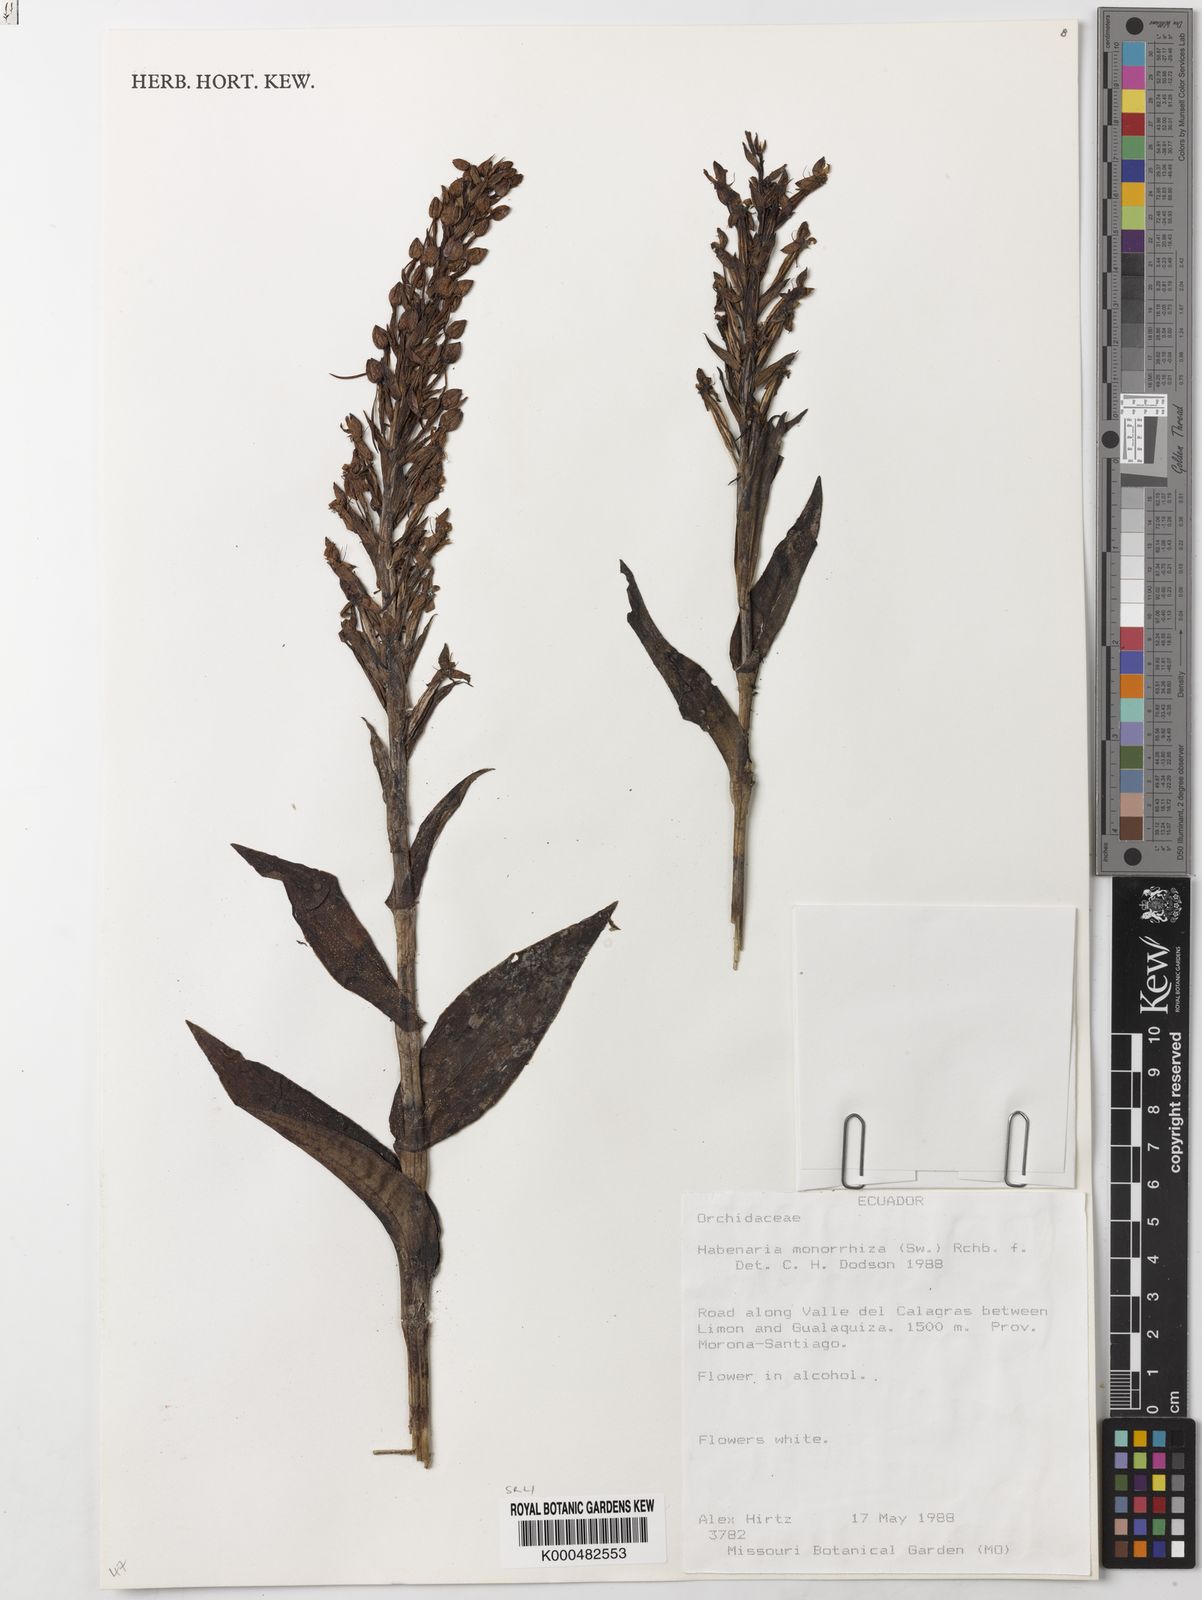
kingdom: Plantae
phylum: Tracheophyta
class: Liliopsida
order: Asparagales
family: Orchidaceae
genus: Habenaria
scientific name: Habenaria monorrhiza
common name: Tropical bog orchid
